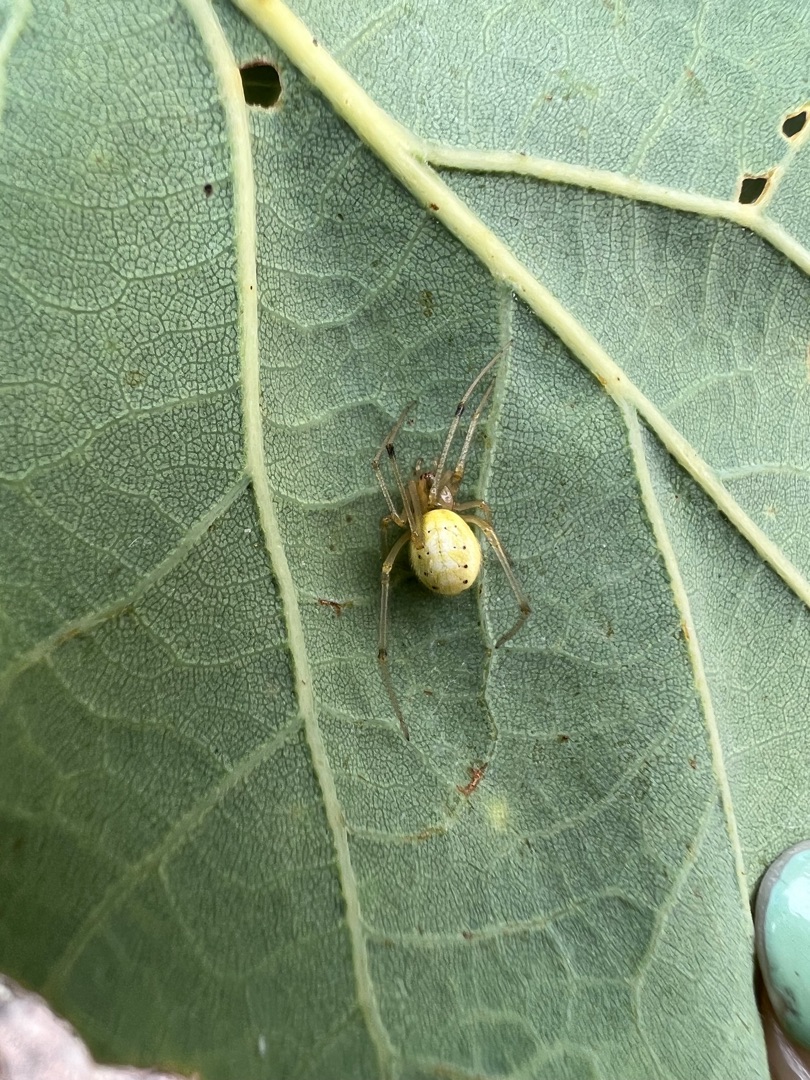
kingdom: Animalia
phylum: Arthropoda
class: Arachnida
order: Araneae
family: Theridiidae
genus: Enoplognatha
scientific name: Enoplognatha
